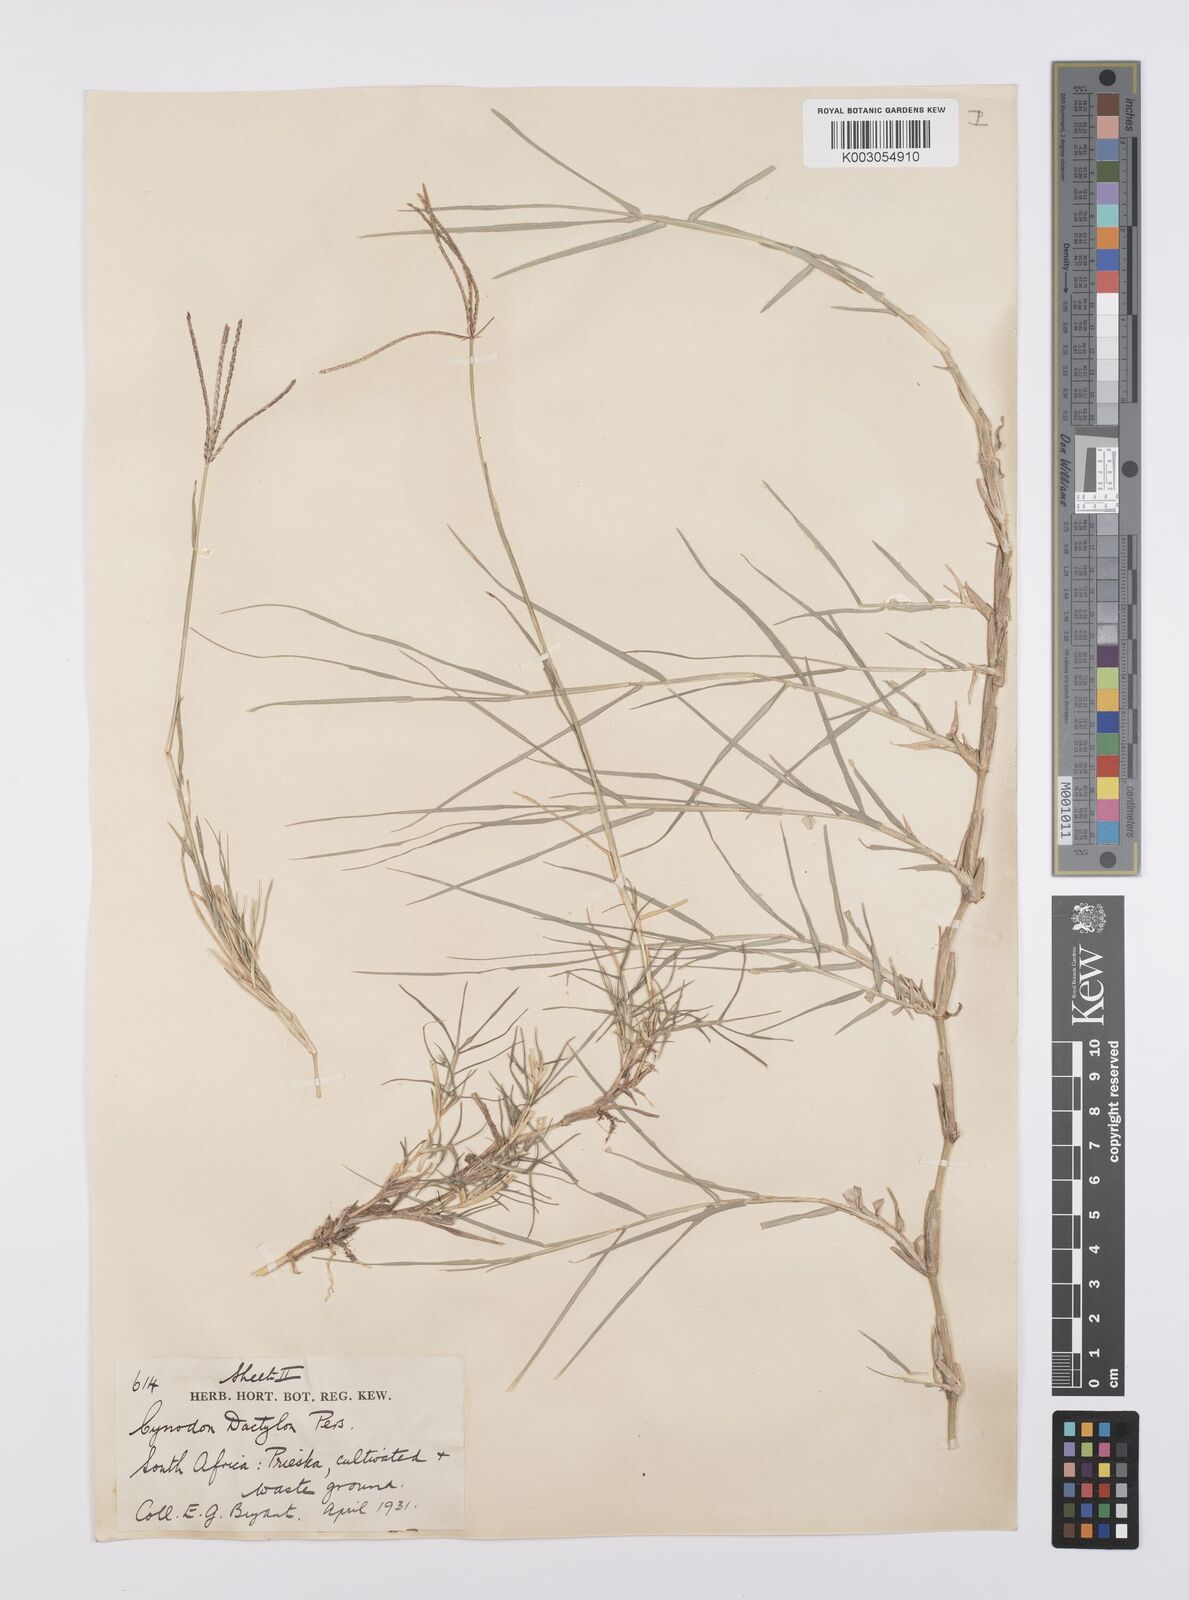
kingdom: Plantae
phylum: Tracheophyta
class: Liliopsida
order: Poales
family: Poaceae
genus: Cynodon
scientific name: Cynodon dactylon
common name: Bermuda grass
